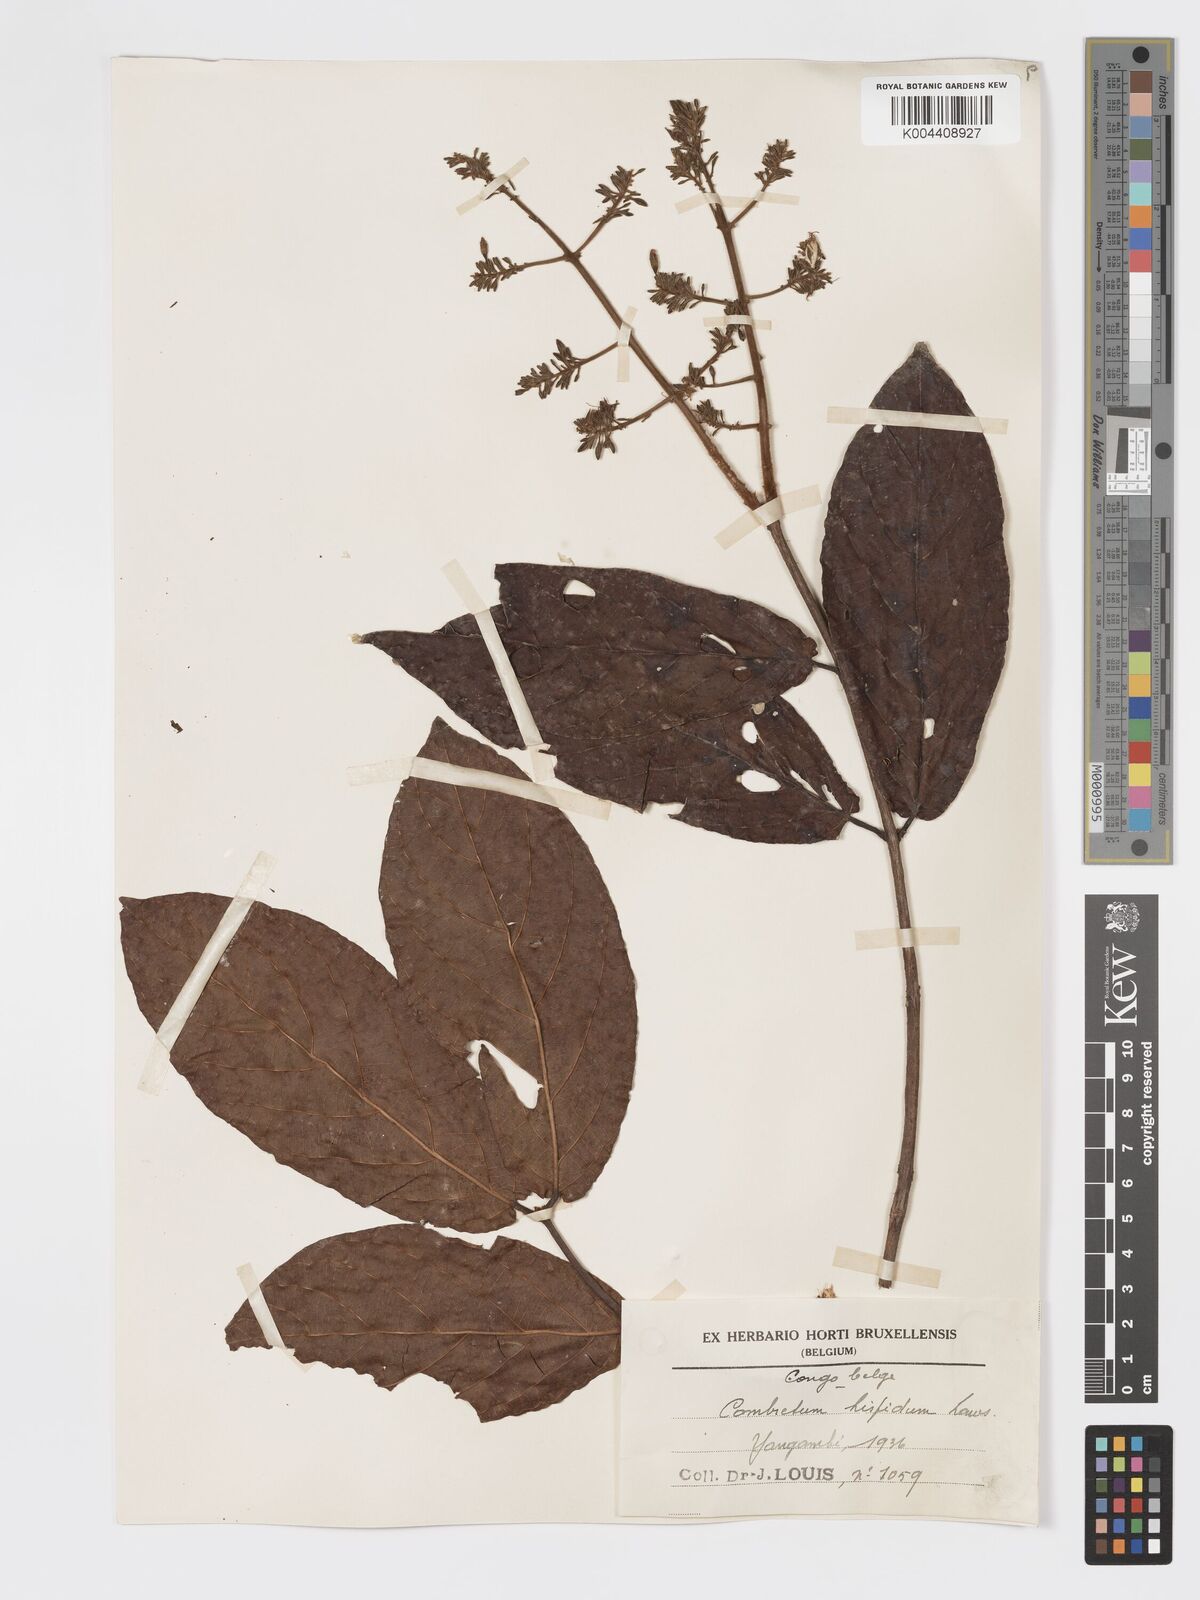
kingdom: Plantae
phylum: Tracheophyta
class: Magnoliopsida
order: Myrtales
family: Combretaceae
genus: Combretum
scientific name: Combretum comosum
